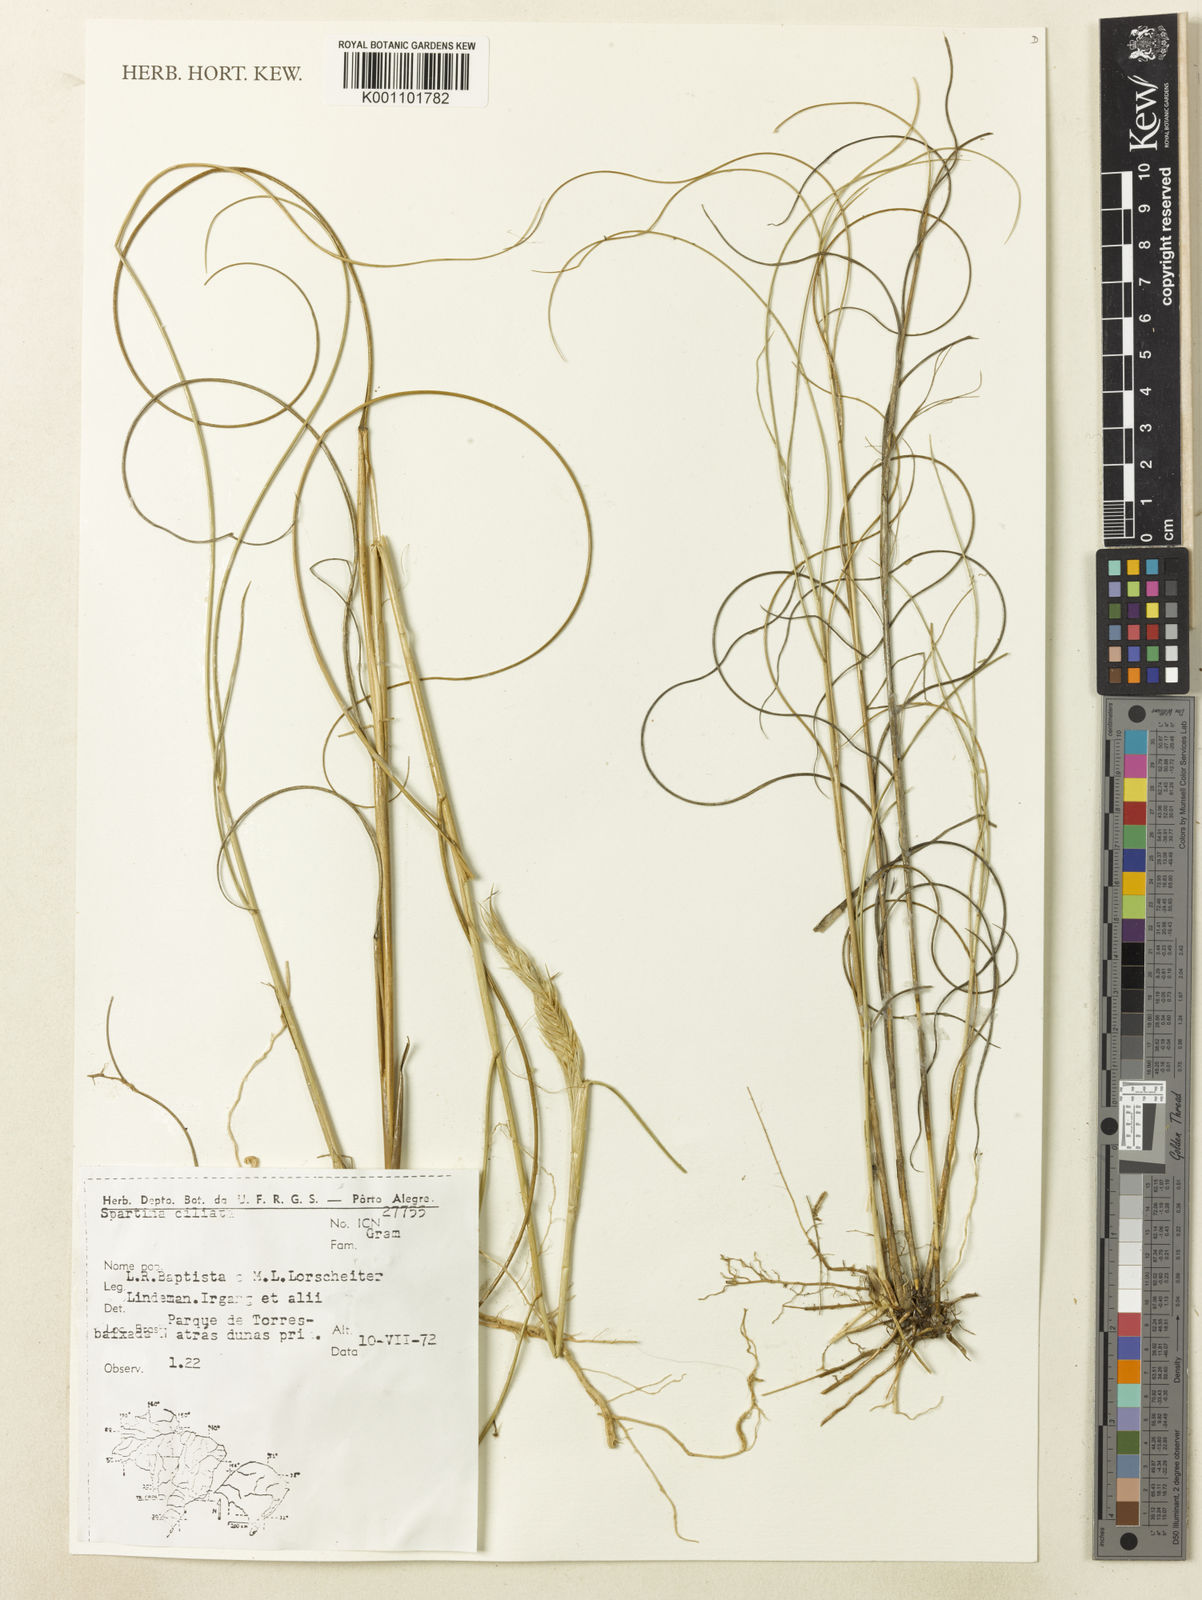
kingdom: Plantae
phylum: Tracheophyta
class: Liliopsida
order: Poales
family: Poaceae
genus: Sporobolus
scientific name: Sporobolus coarctatus
